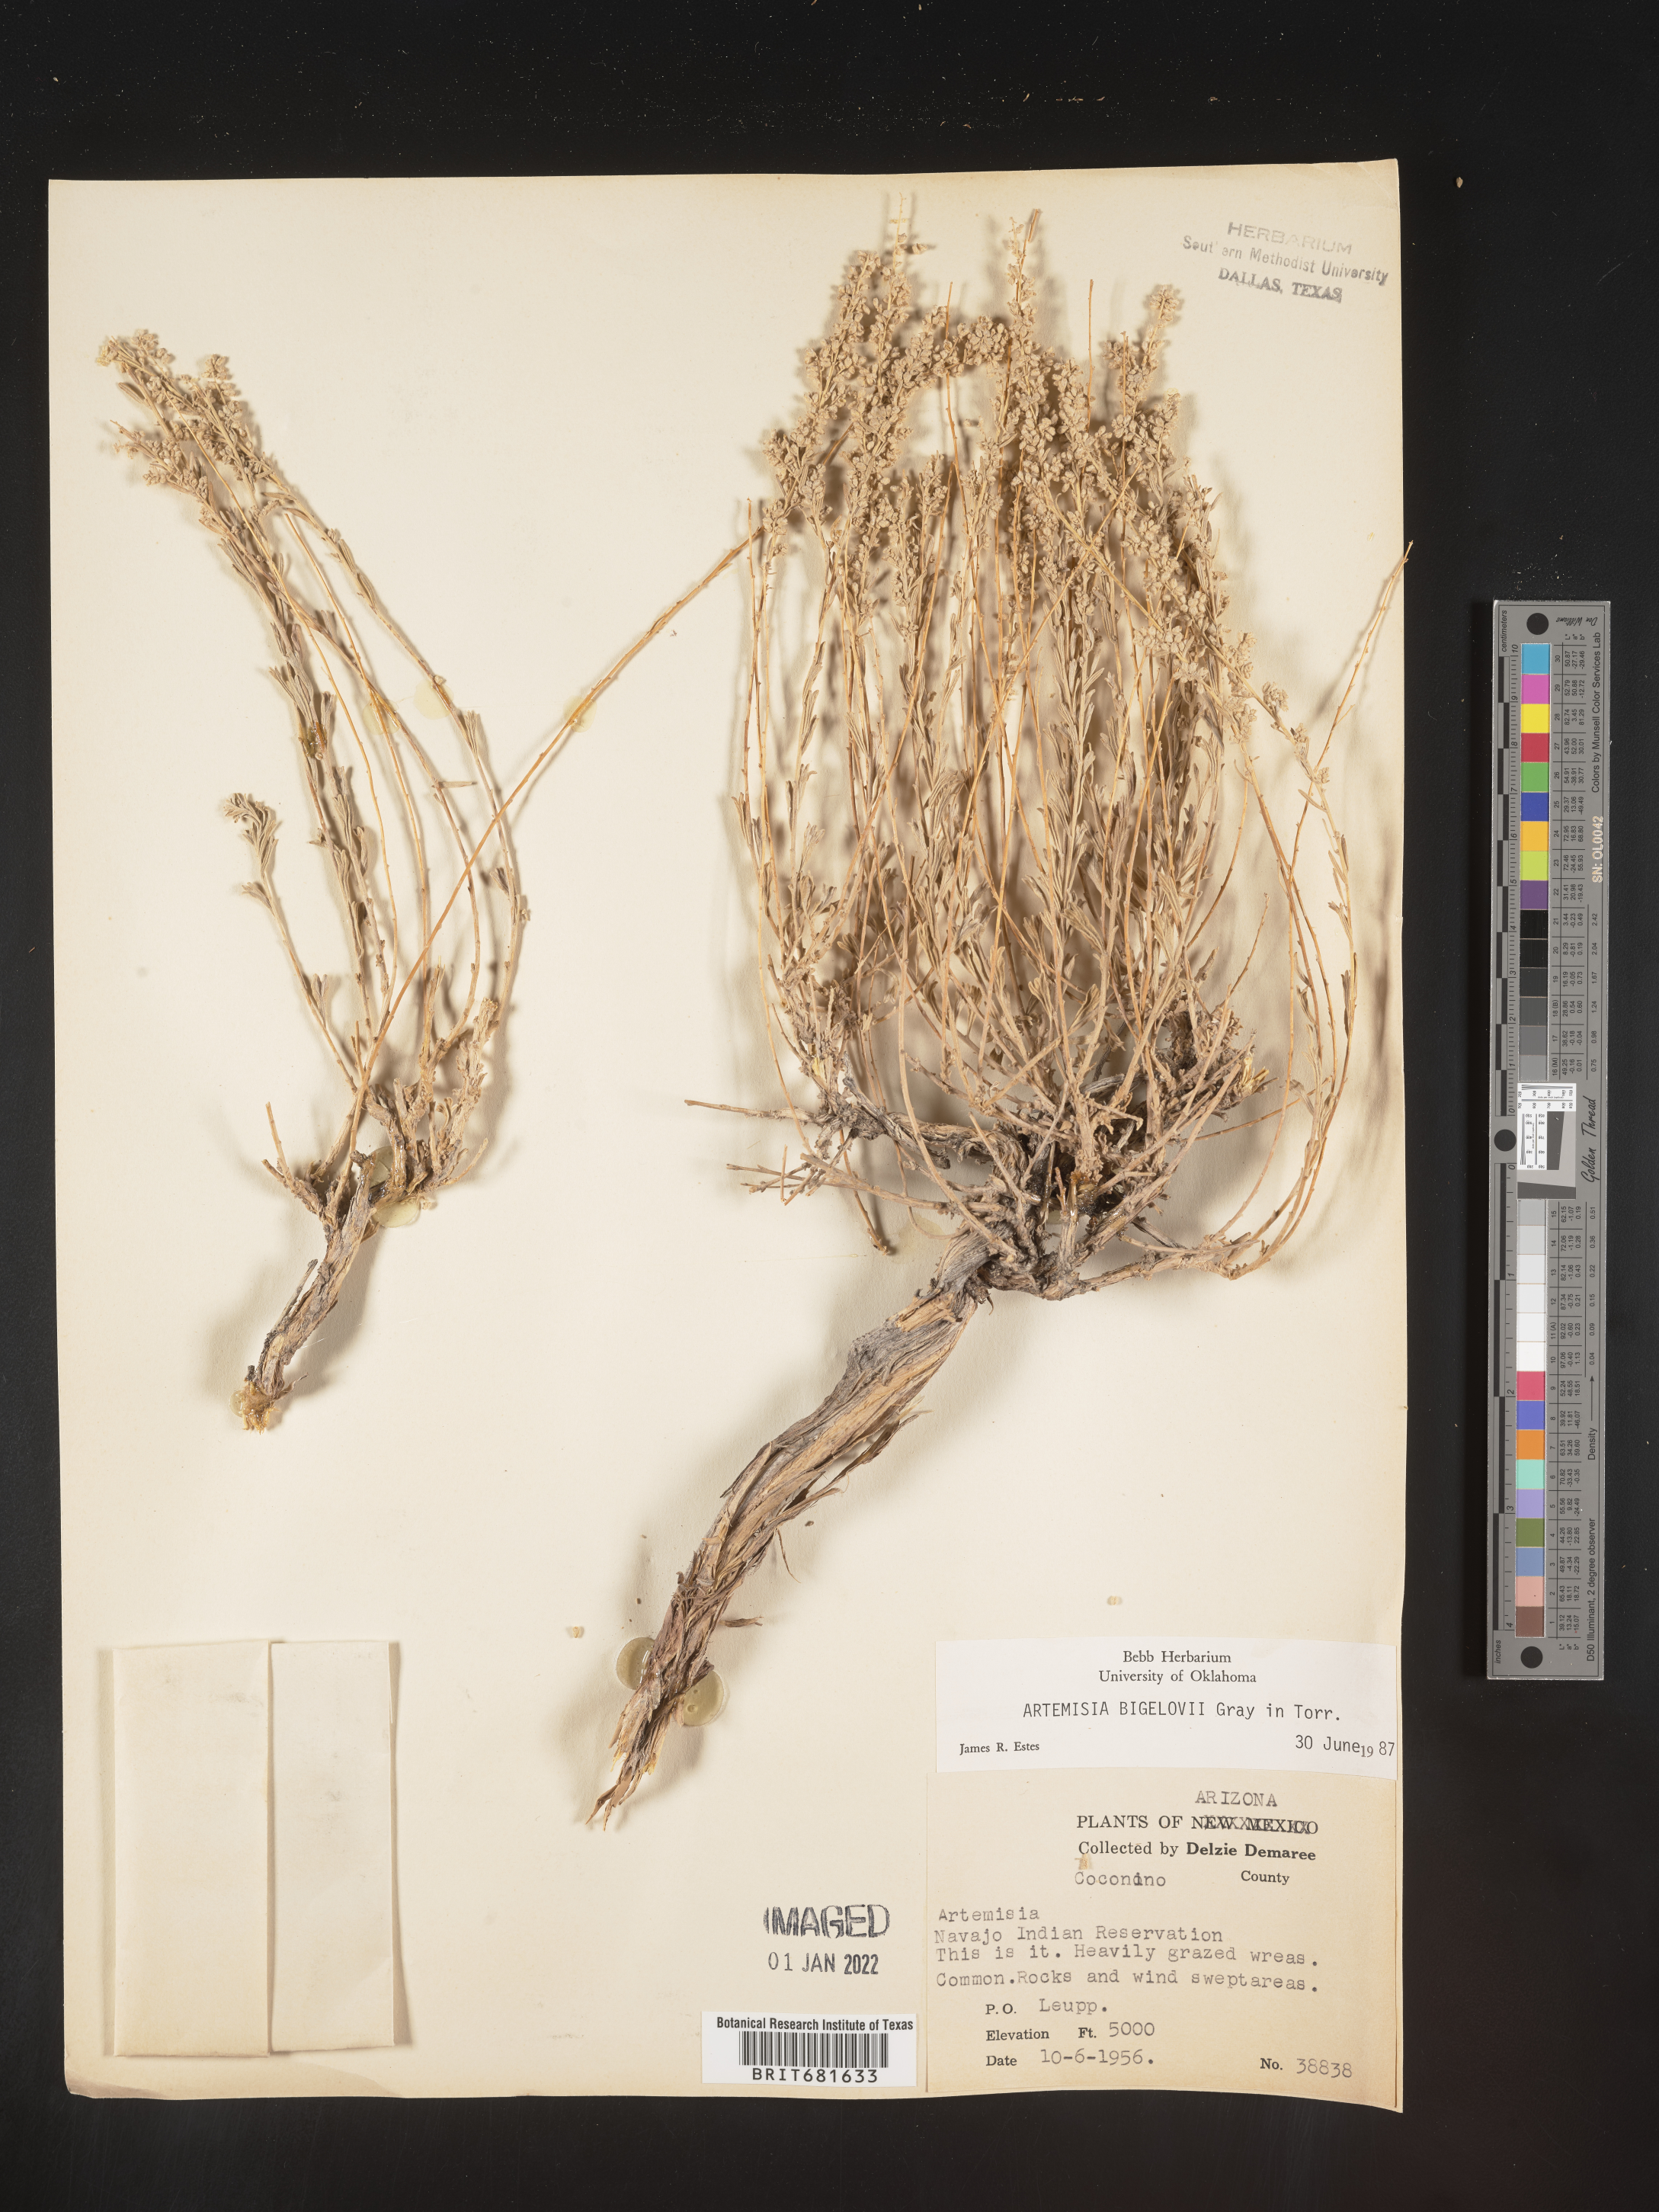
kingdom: Plantae
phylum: Tracheophyta
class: Magnoliopsida
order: Asterales
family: Asteraceae
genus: Artemisia
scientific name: Artemisia bigelovii
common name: Bigelow sagebrush
